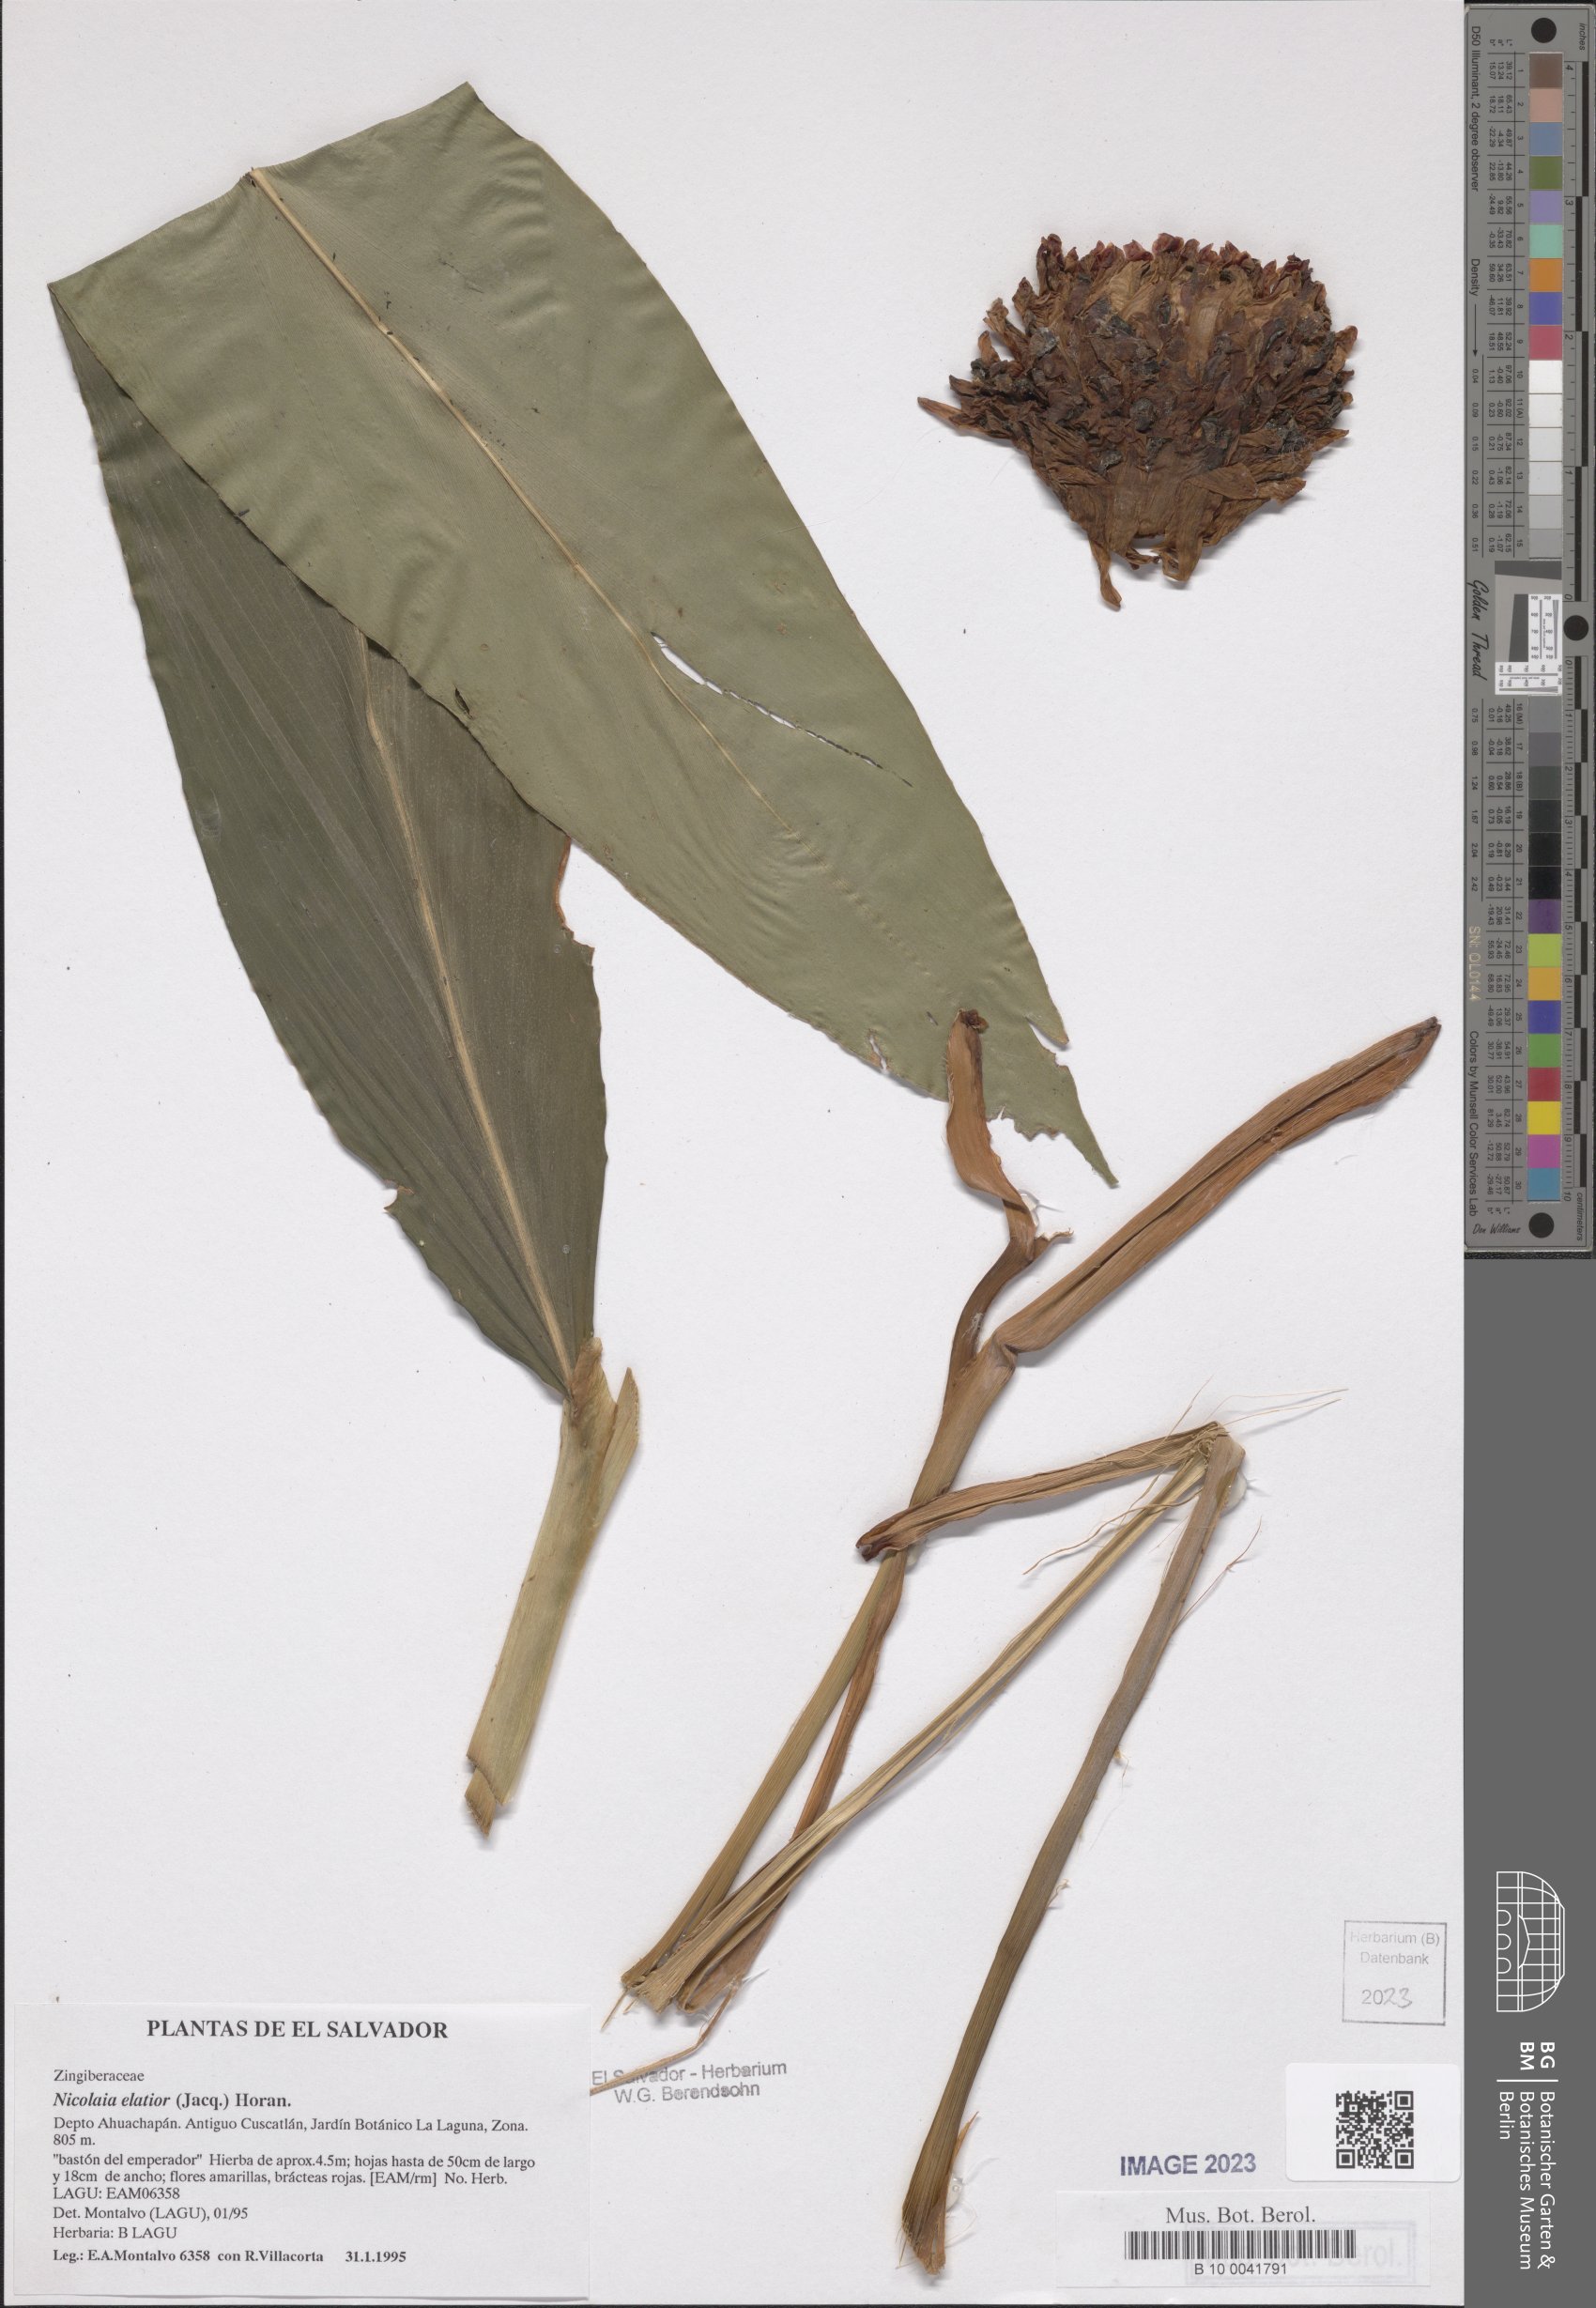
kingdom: Plantae
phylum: Tracheophyta
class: Liliopsida
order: Zingiberales
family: Zingiberaceae
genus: Etlingera
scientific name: Etlingera elatior
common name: Philippine waxflower
